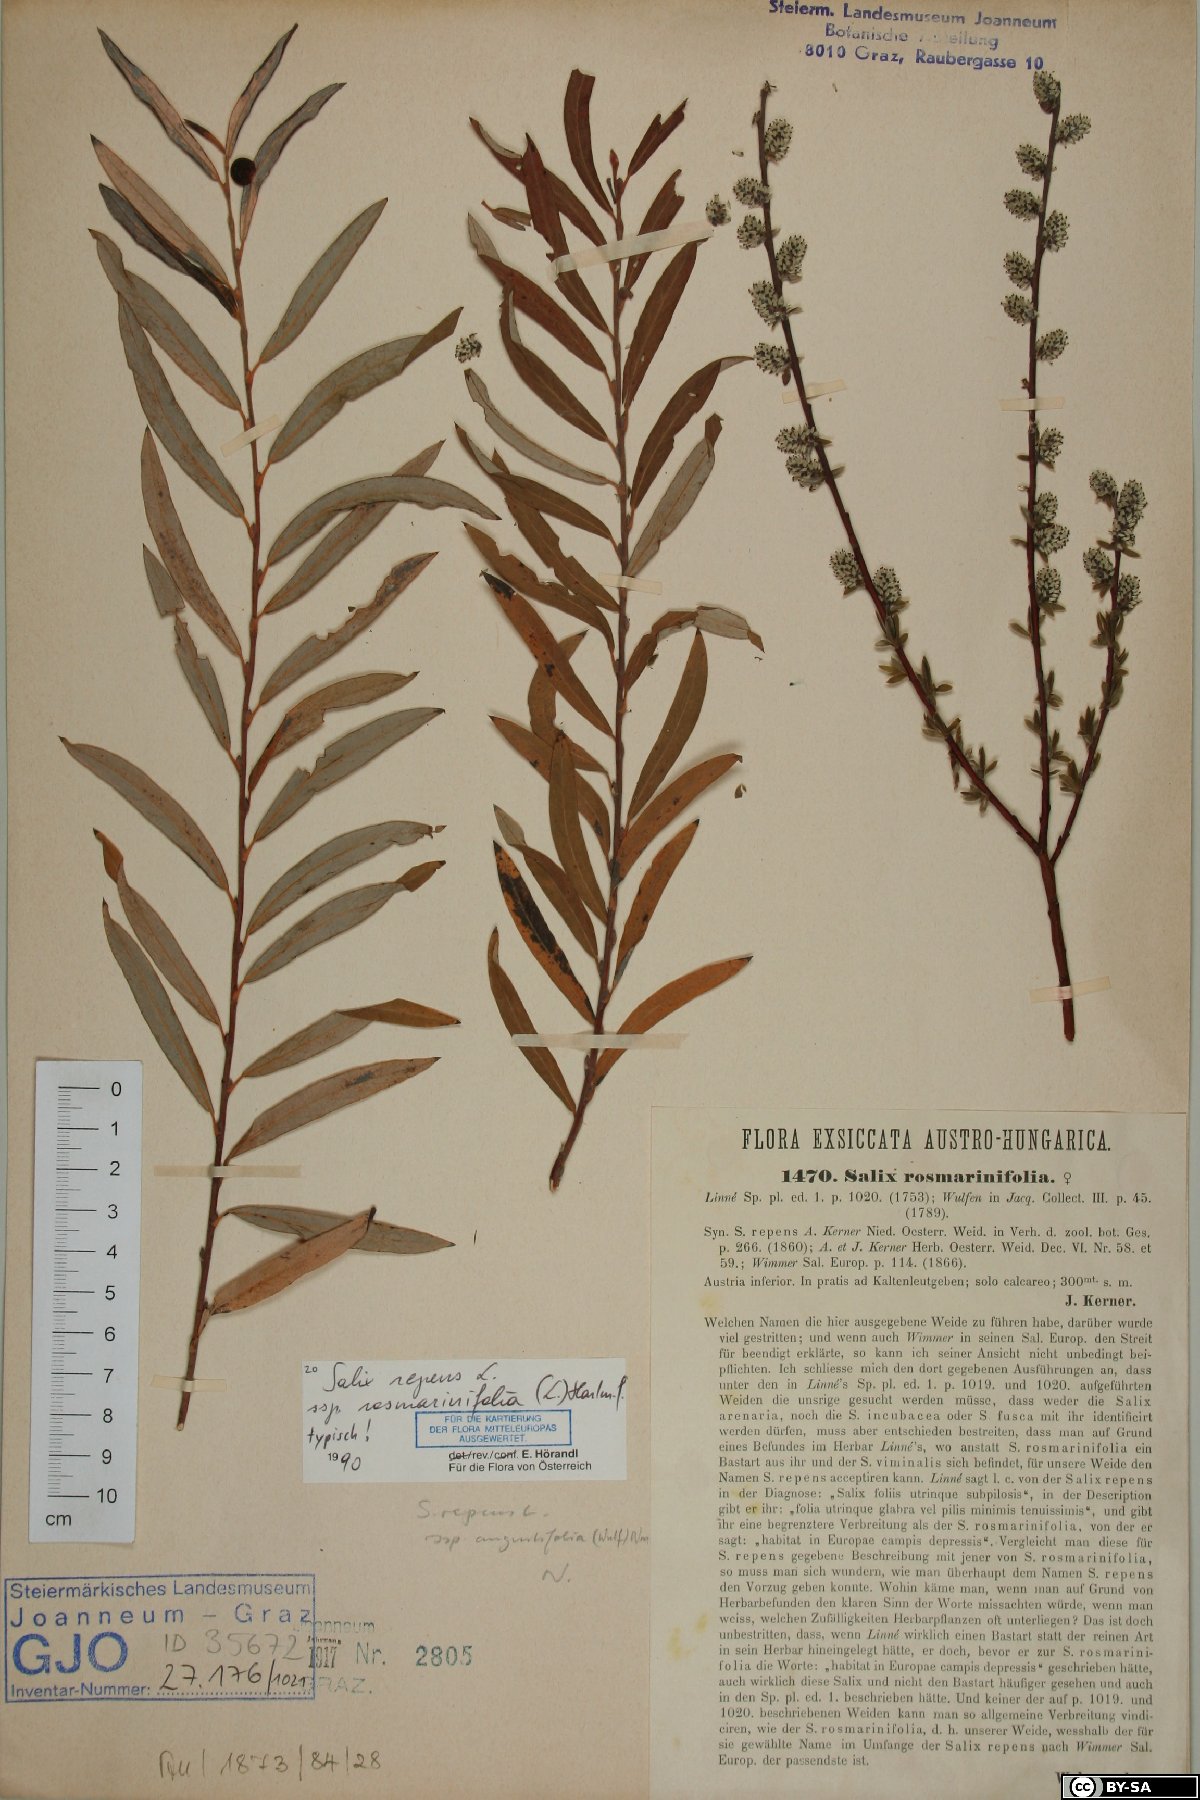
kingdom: Plantae
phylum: Tracheophyta
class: Magnoliopsida
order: Malpighiales
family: Salicaceae
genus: Salix
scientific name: Salix repens
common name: Creeping willow
